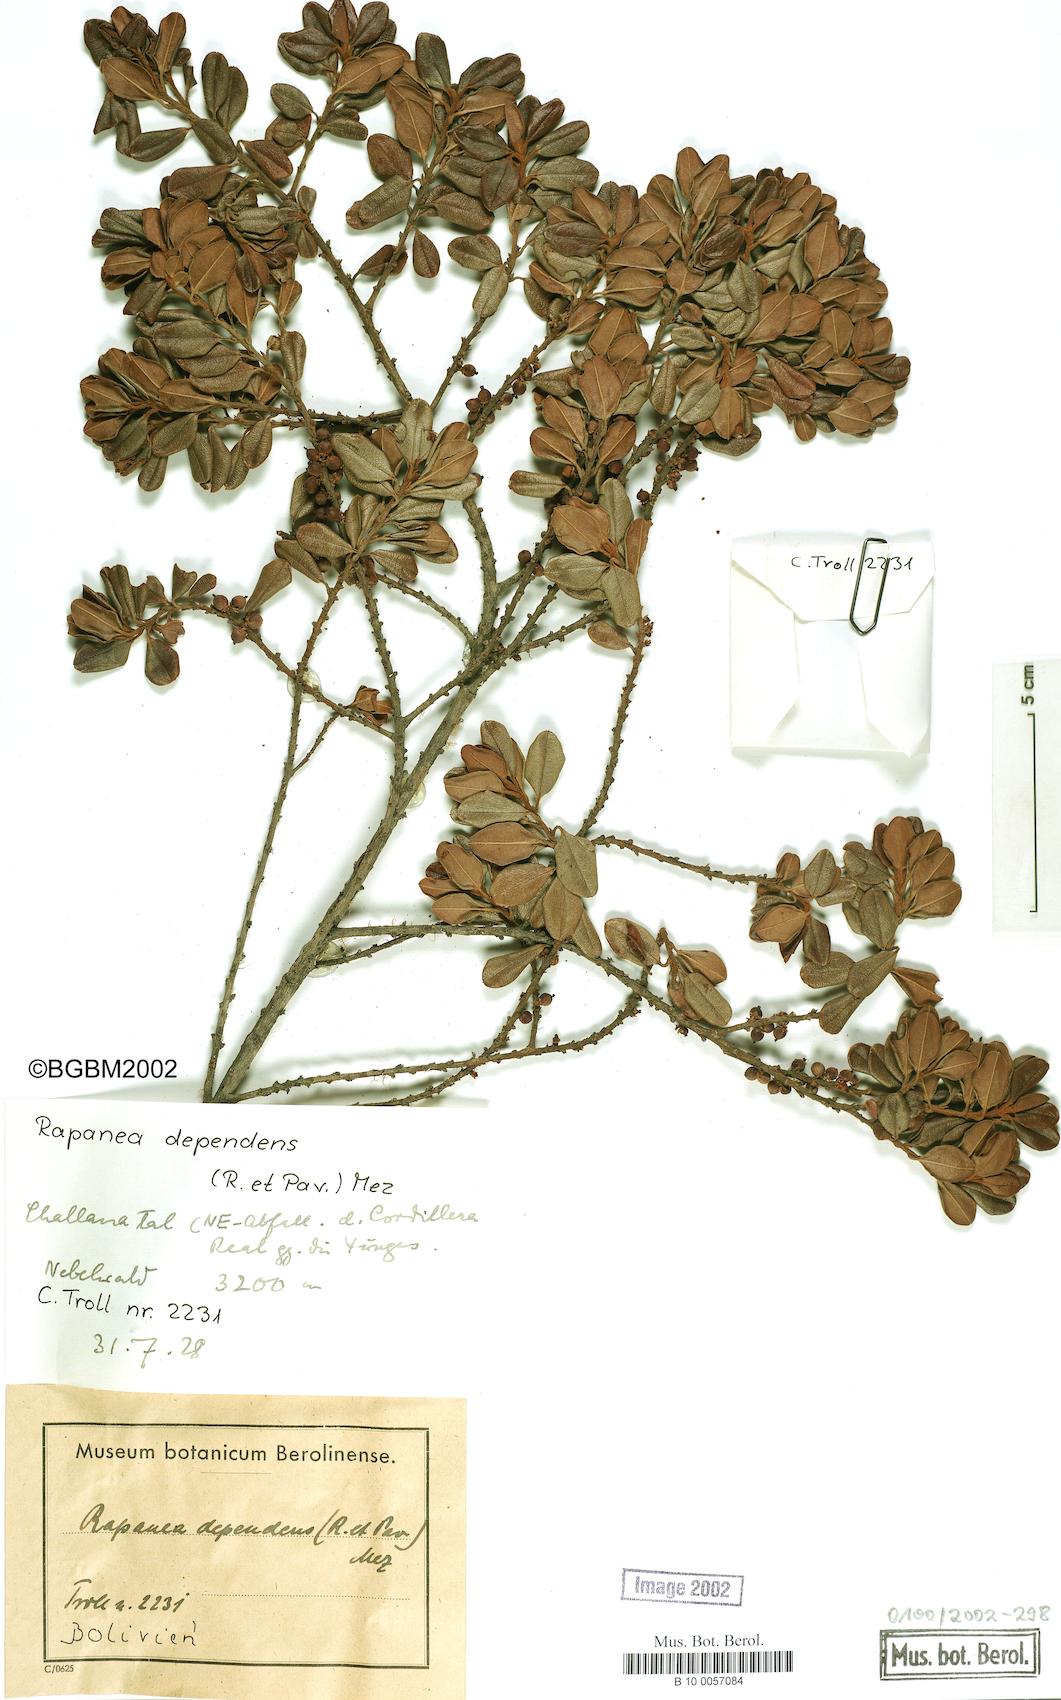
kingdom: Plantae
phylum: Tracheophyta
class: Magnoliopsida
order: Ericales
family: Primulaceae
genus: Myrsine
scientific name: Myrsine dependens
